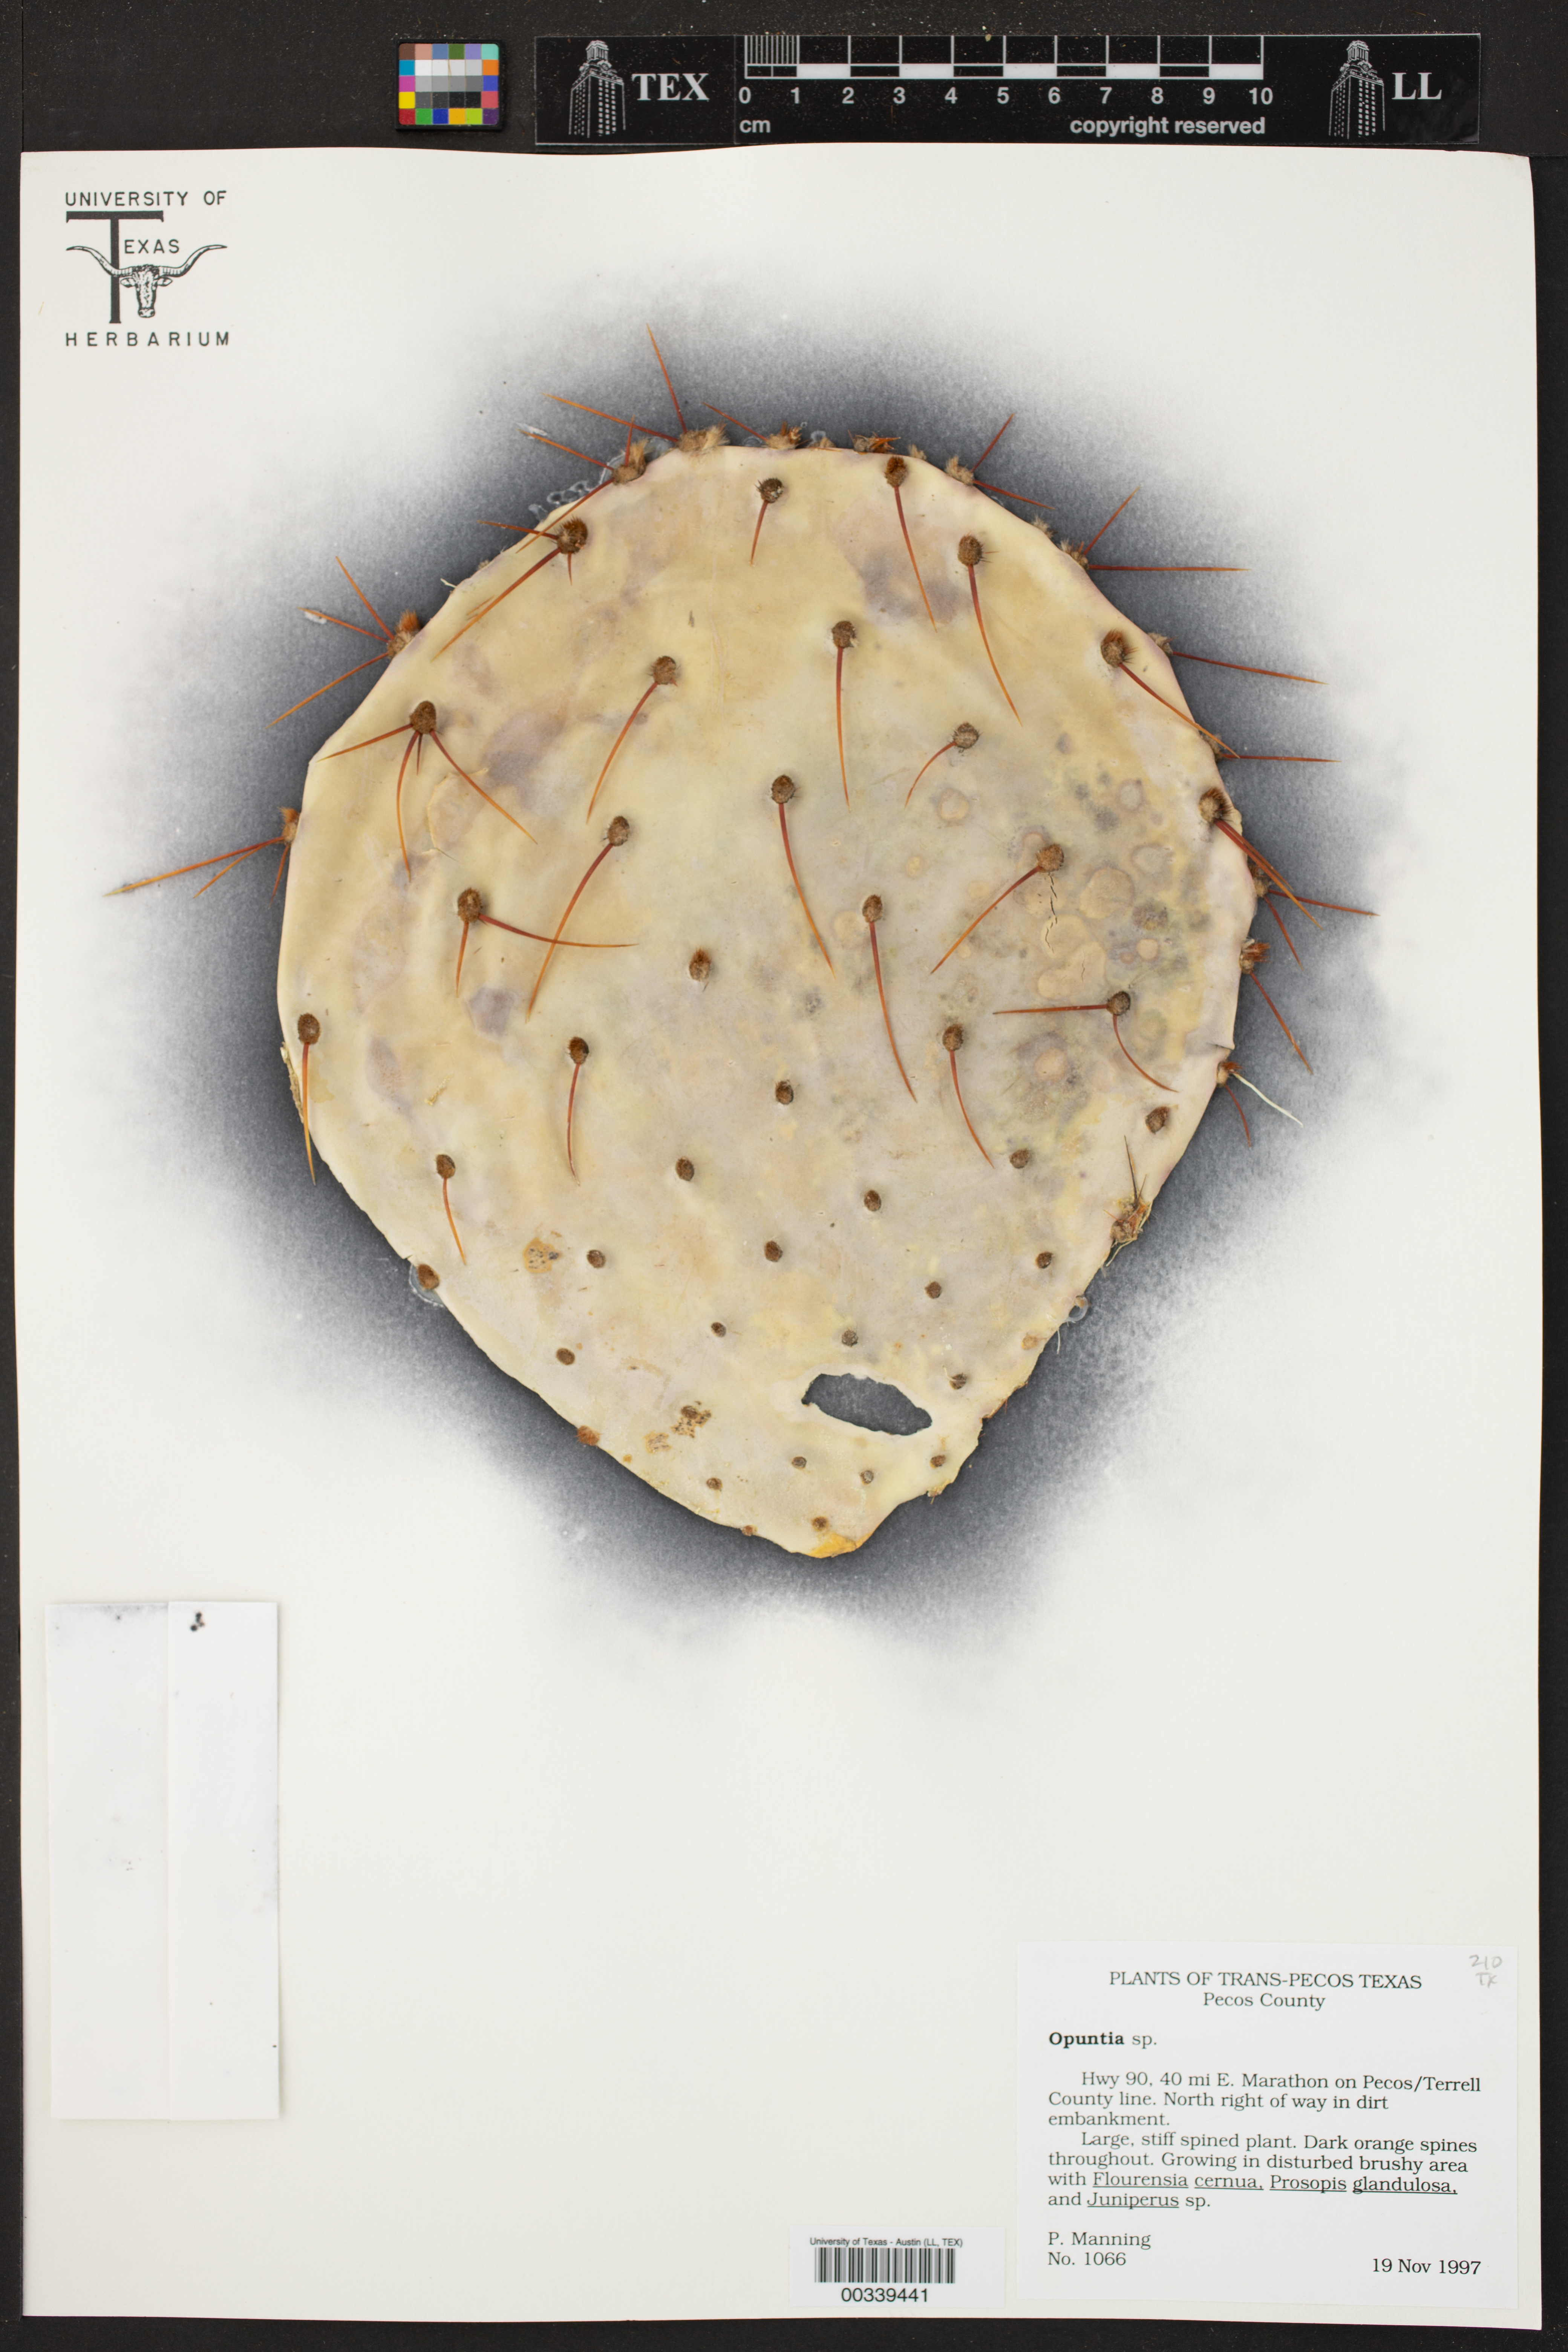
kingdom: Plantae
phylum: Tracheophyta
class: Magnoliopsida
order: Caryophyllales
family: Cactaceae
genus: Opuntia
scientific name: Opuntia
